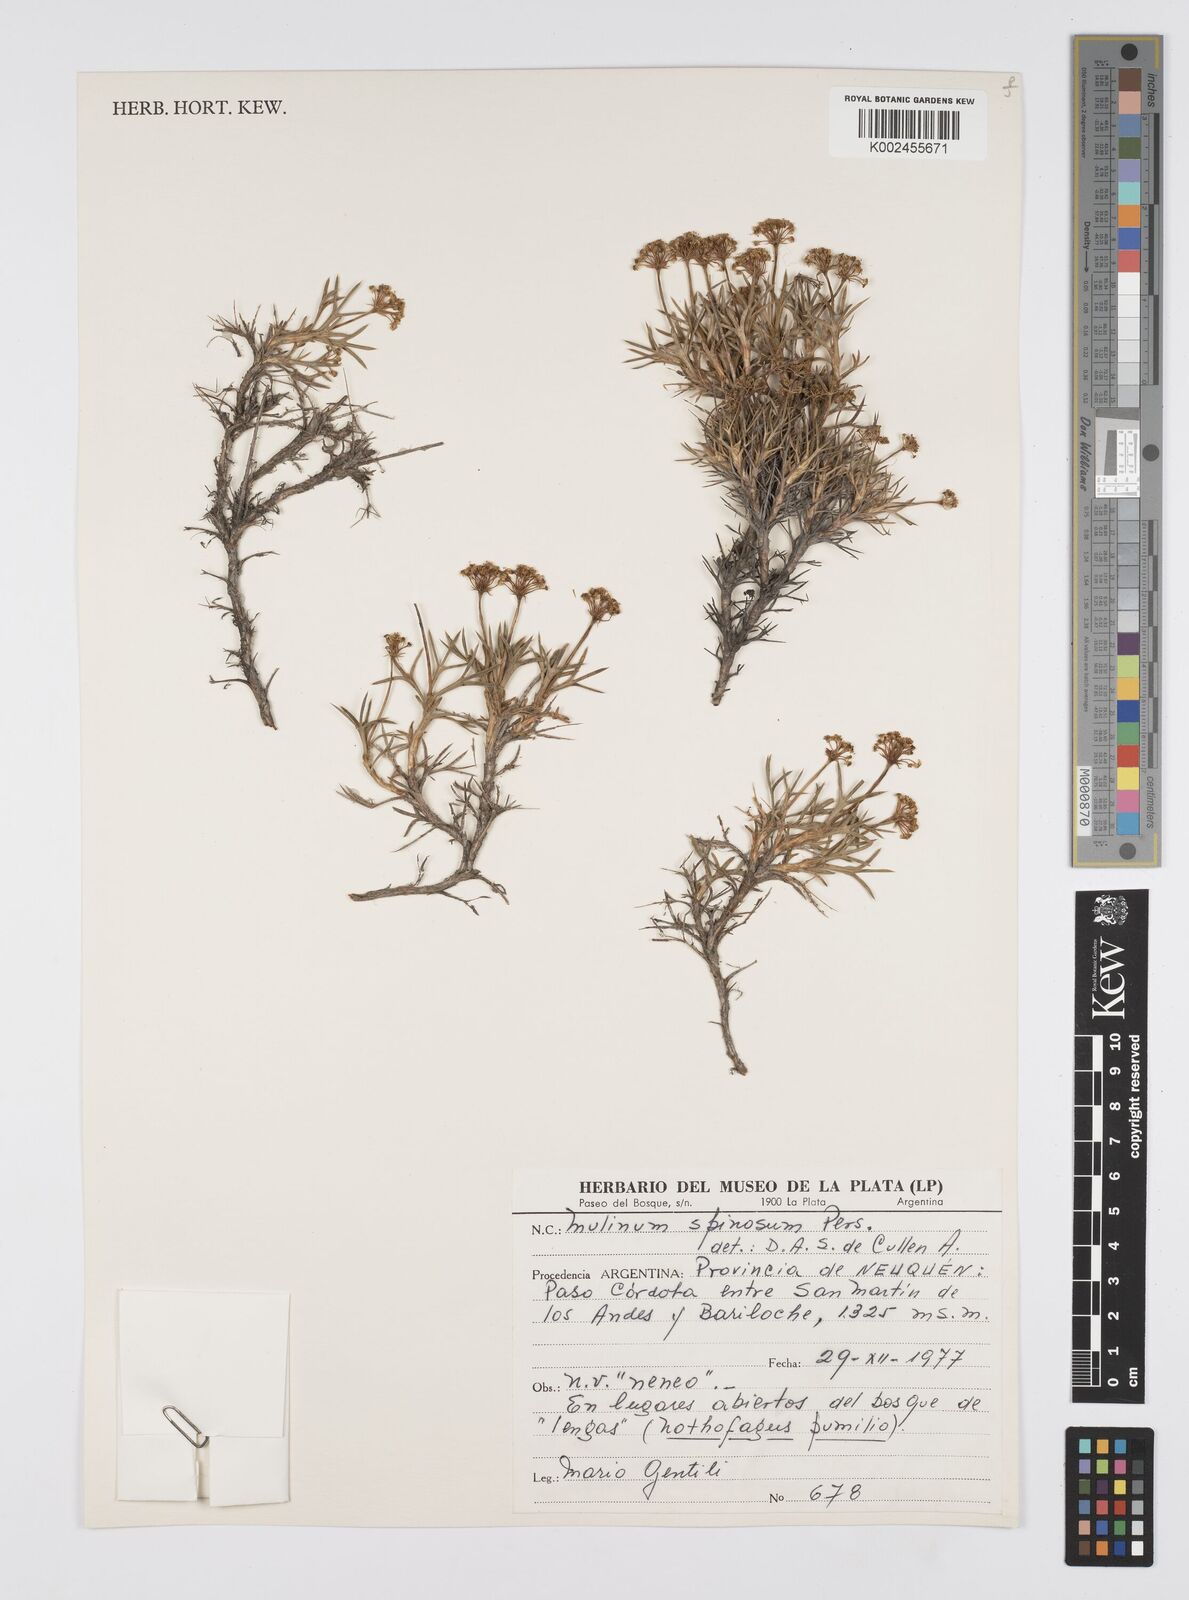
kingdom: Plantae
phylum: Tracheophyta
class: Magnoliopsida
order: Apiales
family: Apiaceae
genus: Azorella
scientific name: Azorella prolifera
